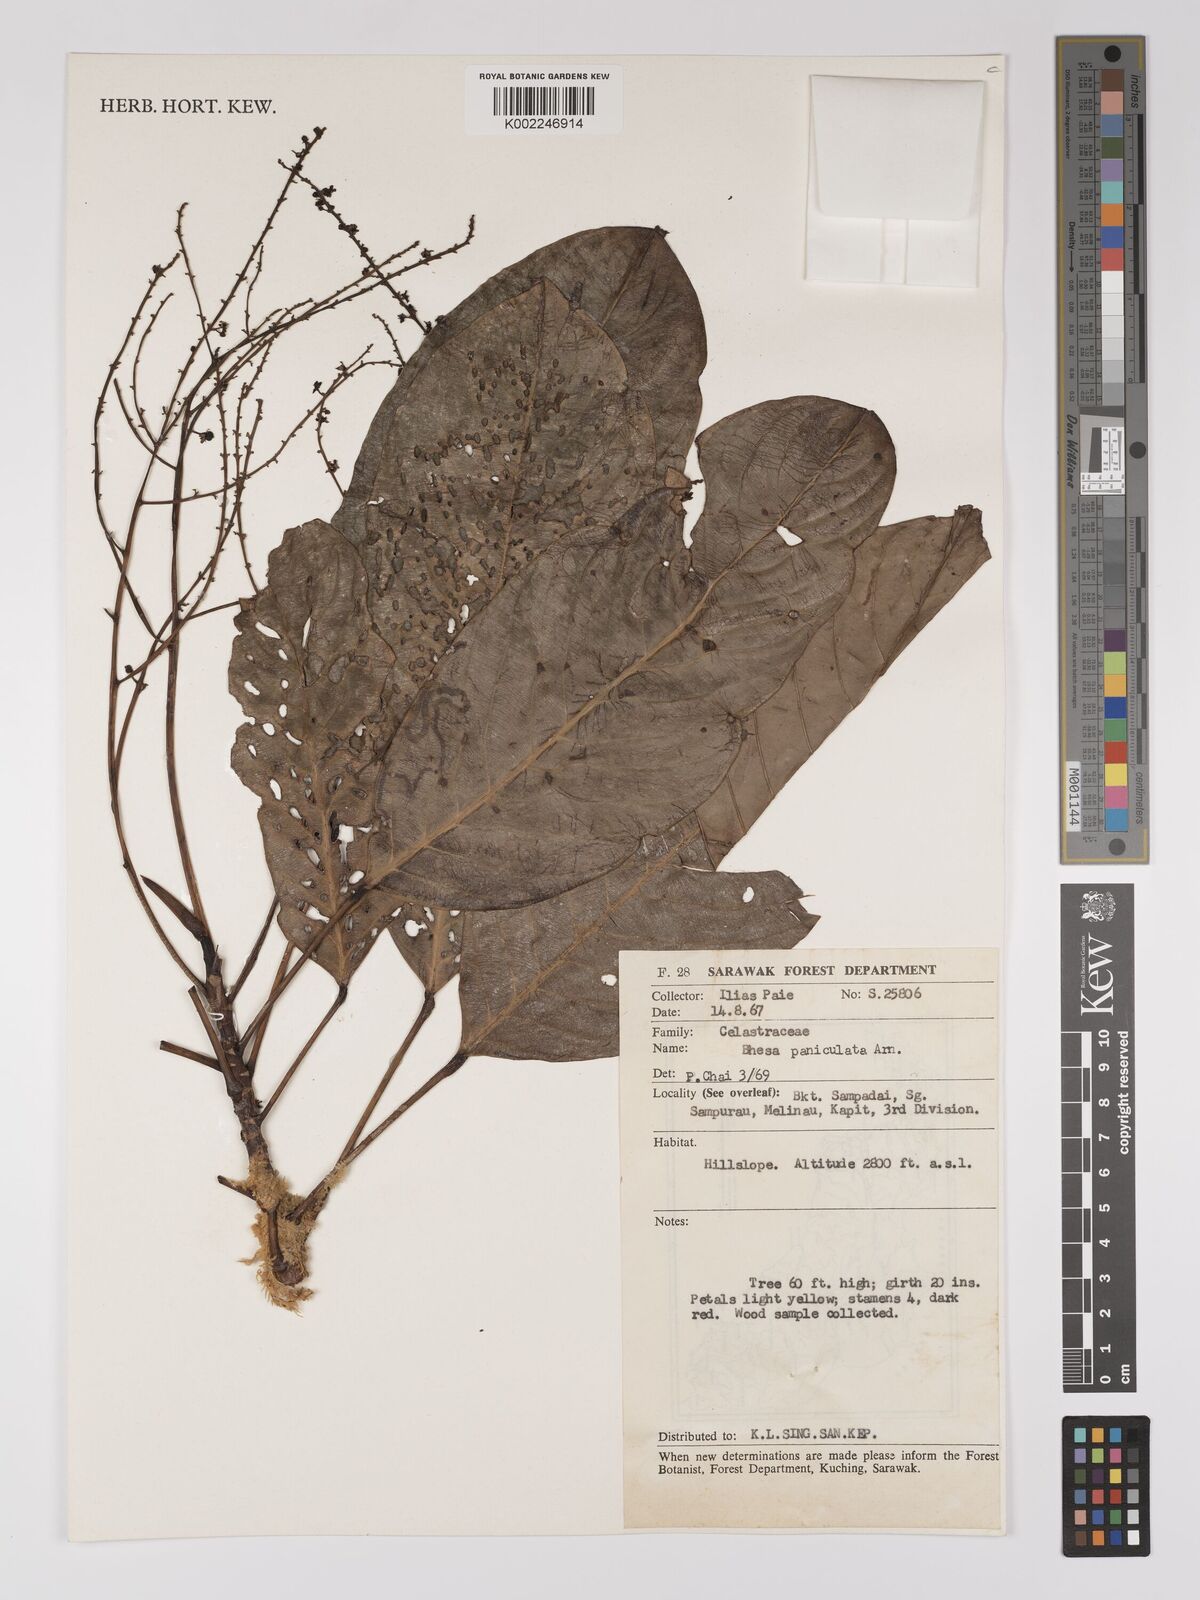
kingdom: Plantae
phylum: Tracheophyta
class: Magnoliopsida
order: Malpighiales
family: Centroplacaceae
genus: Bhesa
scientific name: Bhesa paniculata
